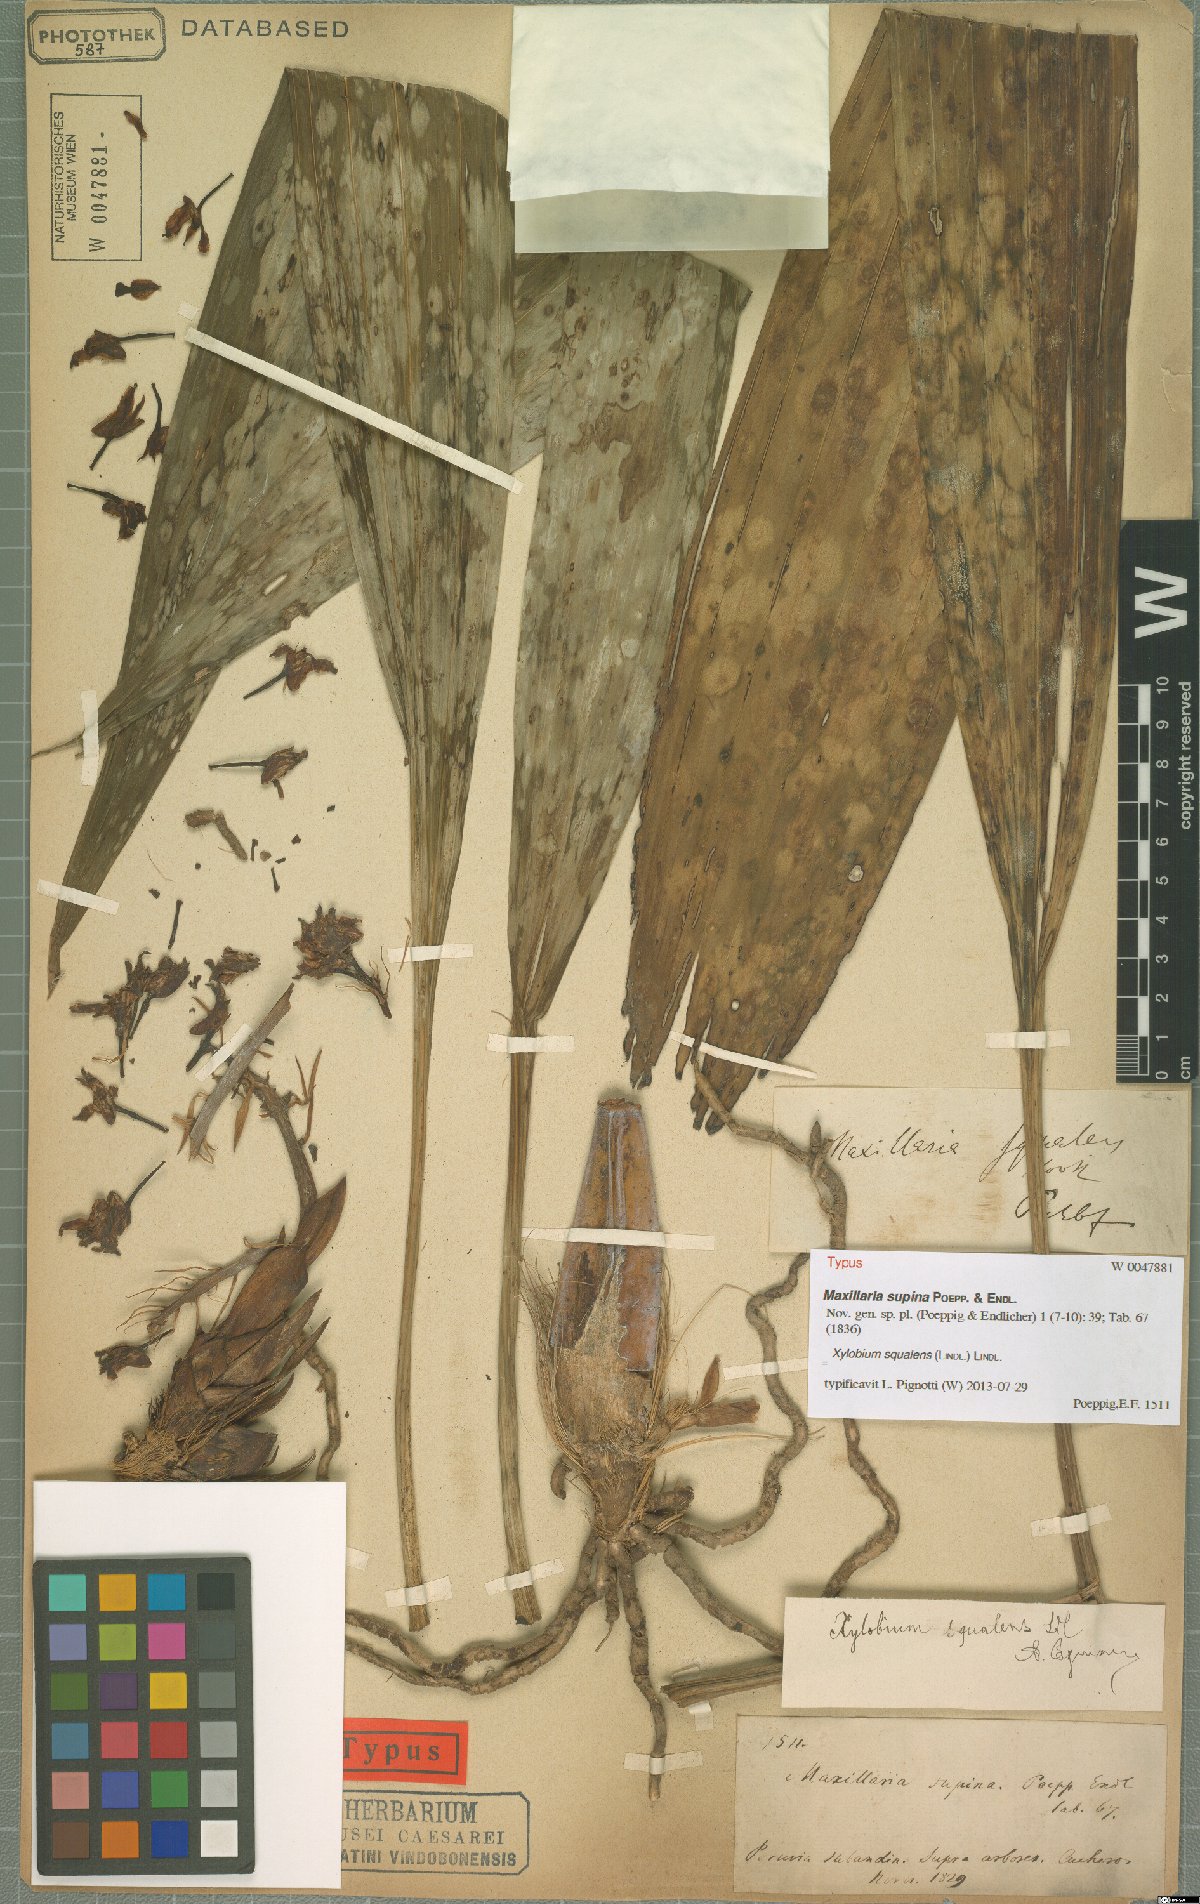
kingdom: Plantae
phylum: Tracheophyta
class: Liliopsida
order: Asparagales
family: Orchidaceae
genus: Xylobium
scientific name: Xylobium squalens
